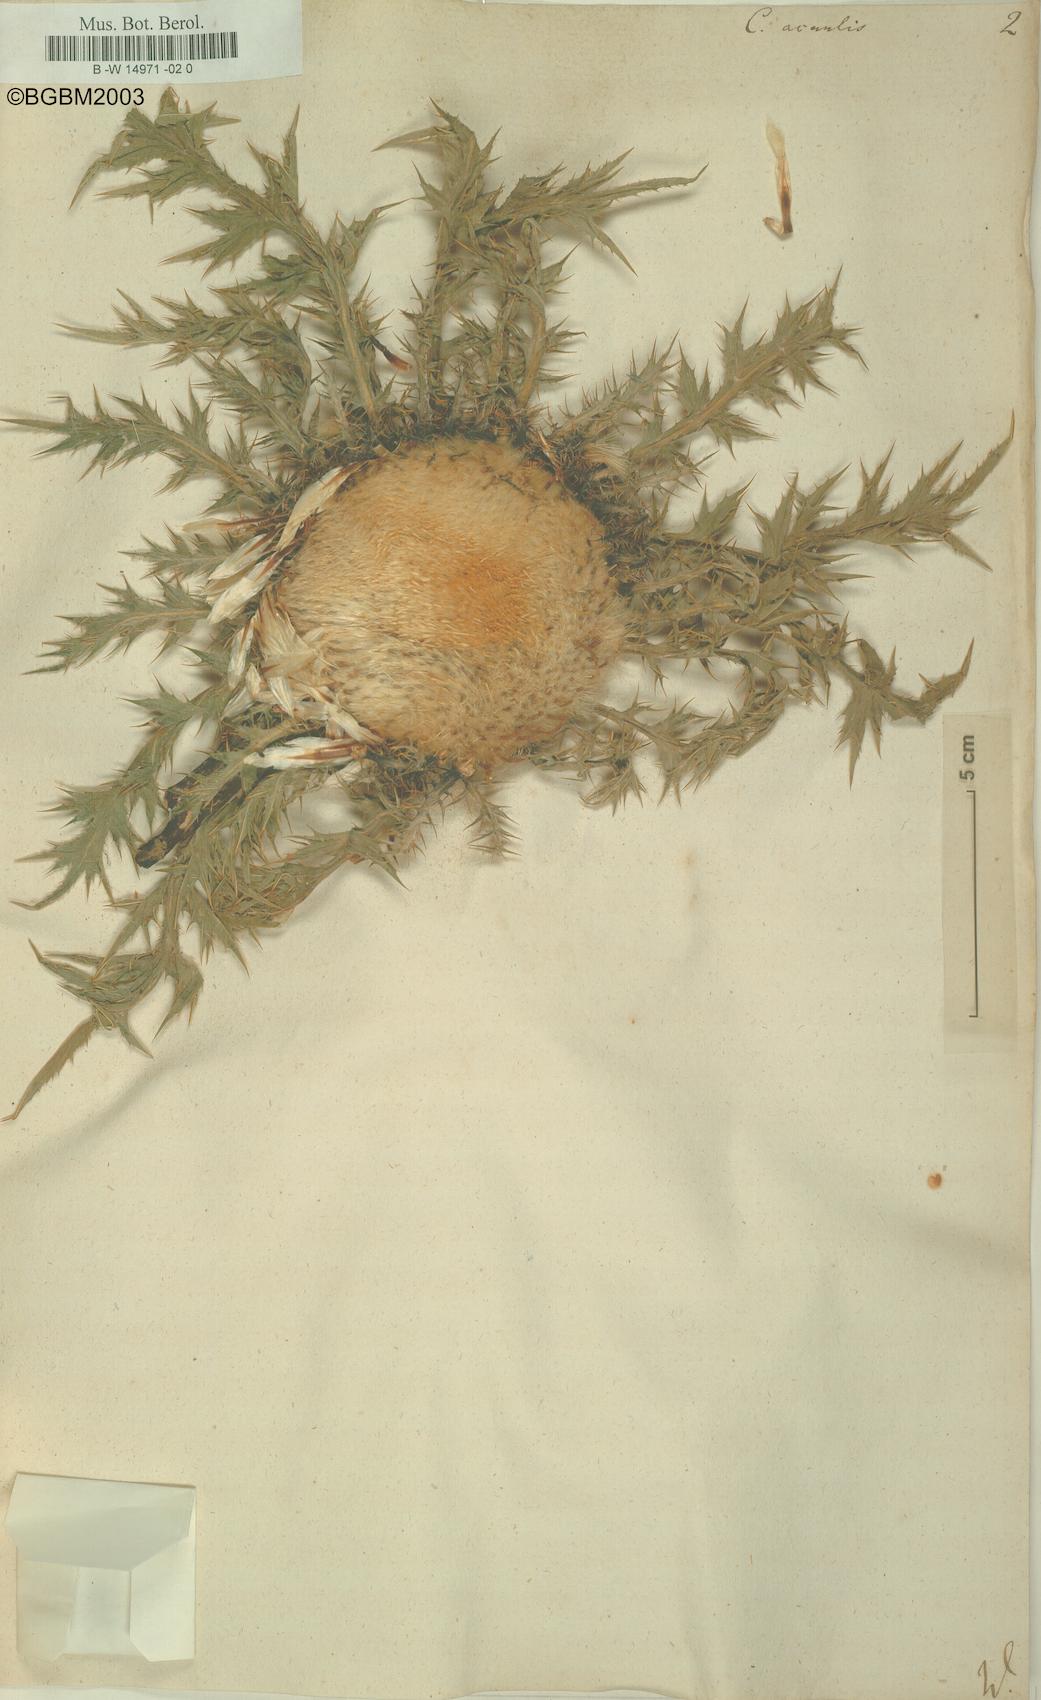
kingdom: Plantae
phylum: Tracheophyta
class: Magnoliopsida
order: Asterales
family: Asteraceae
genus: Carlina
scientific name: Carlina acaulis
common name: Stemless carline thistle
